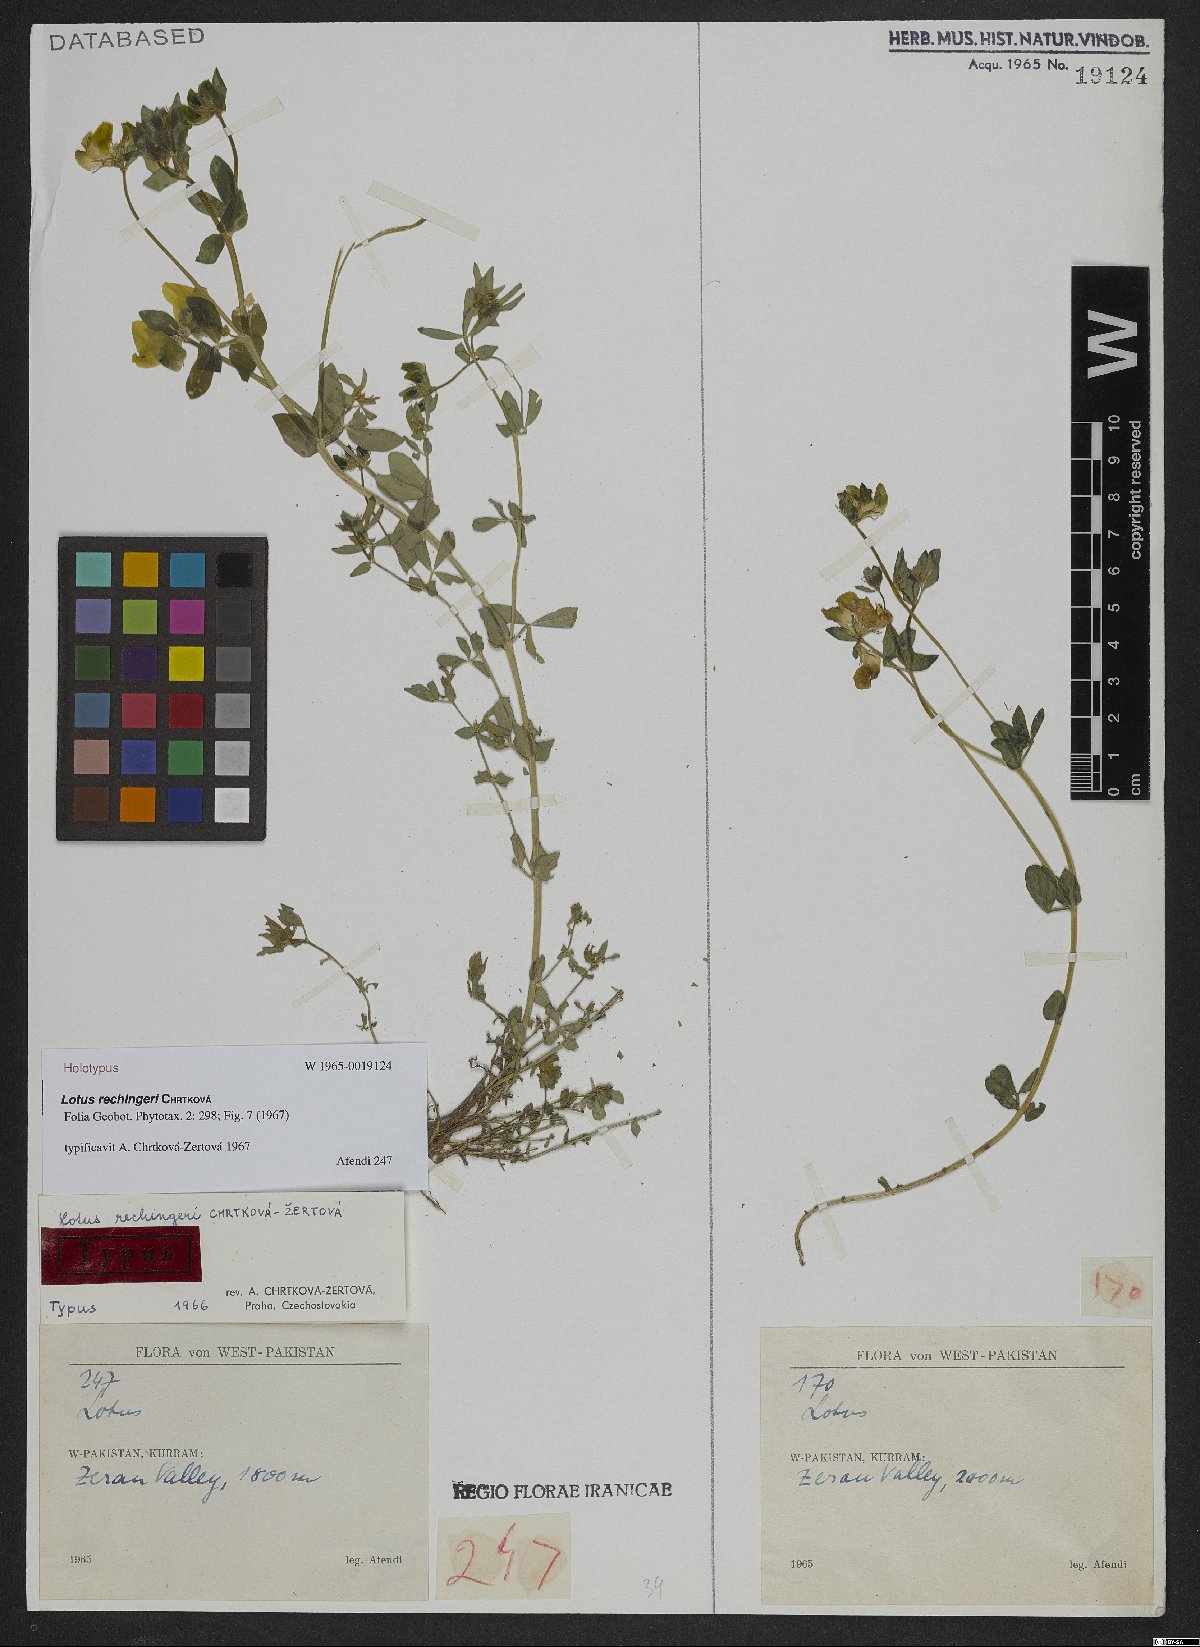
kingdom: Plantae
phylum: Tracheophyta
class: Magnoliopsida
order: Fabales
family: Fabaceae
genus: Lotus
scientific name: Lotus rechingeri
